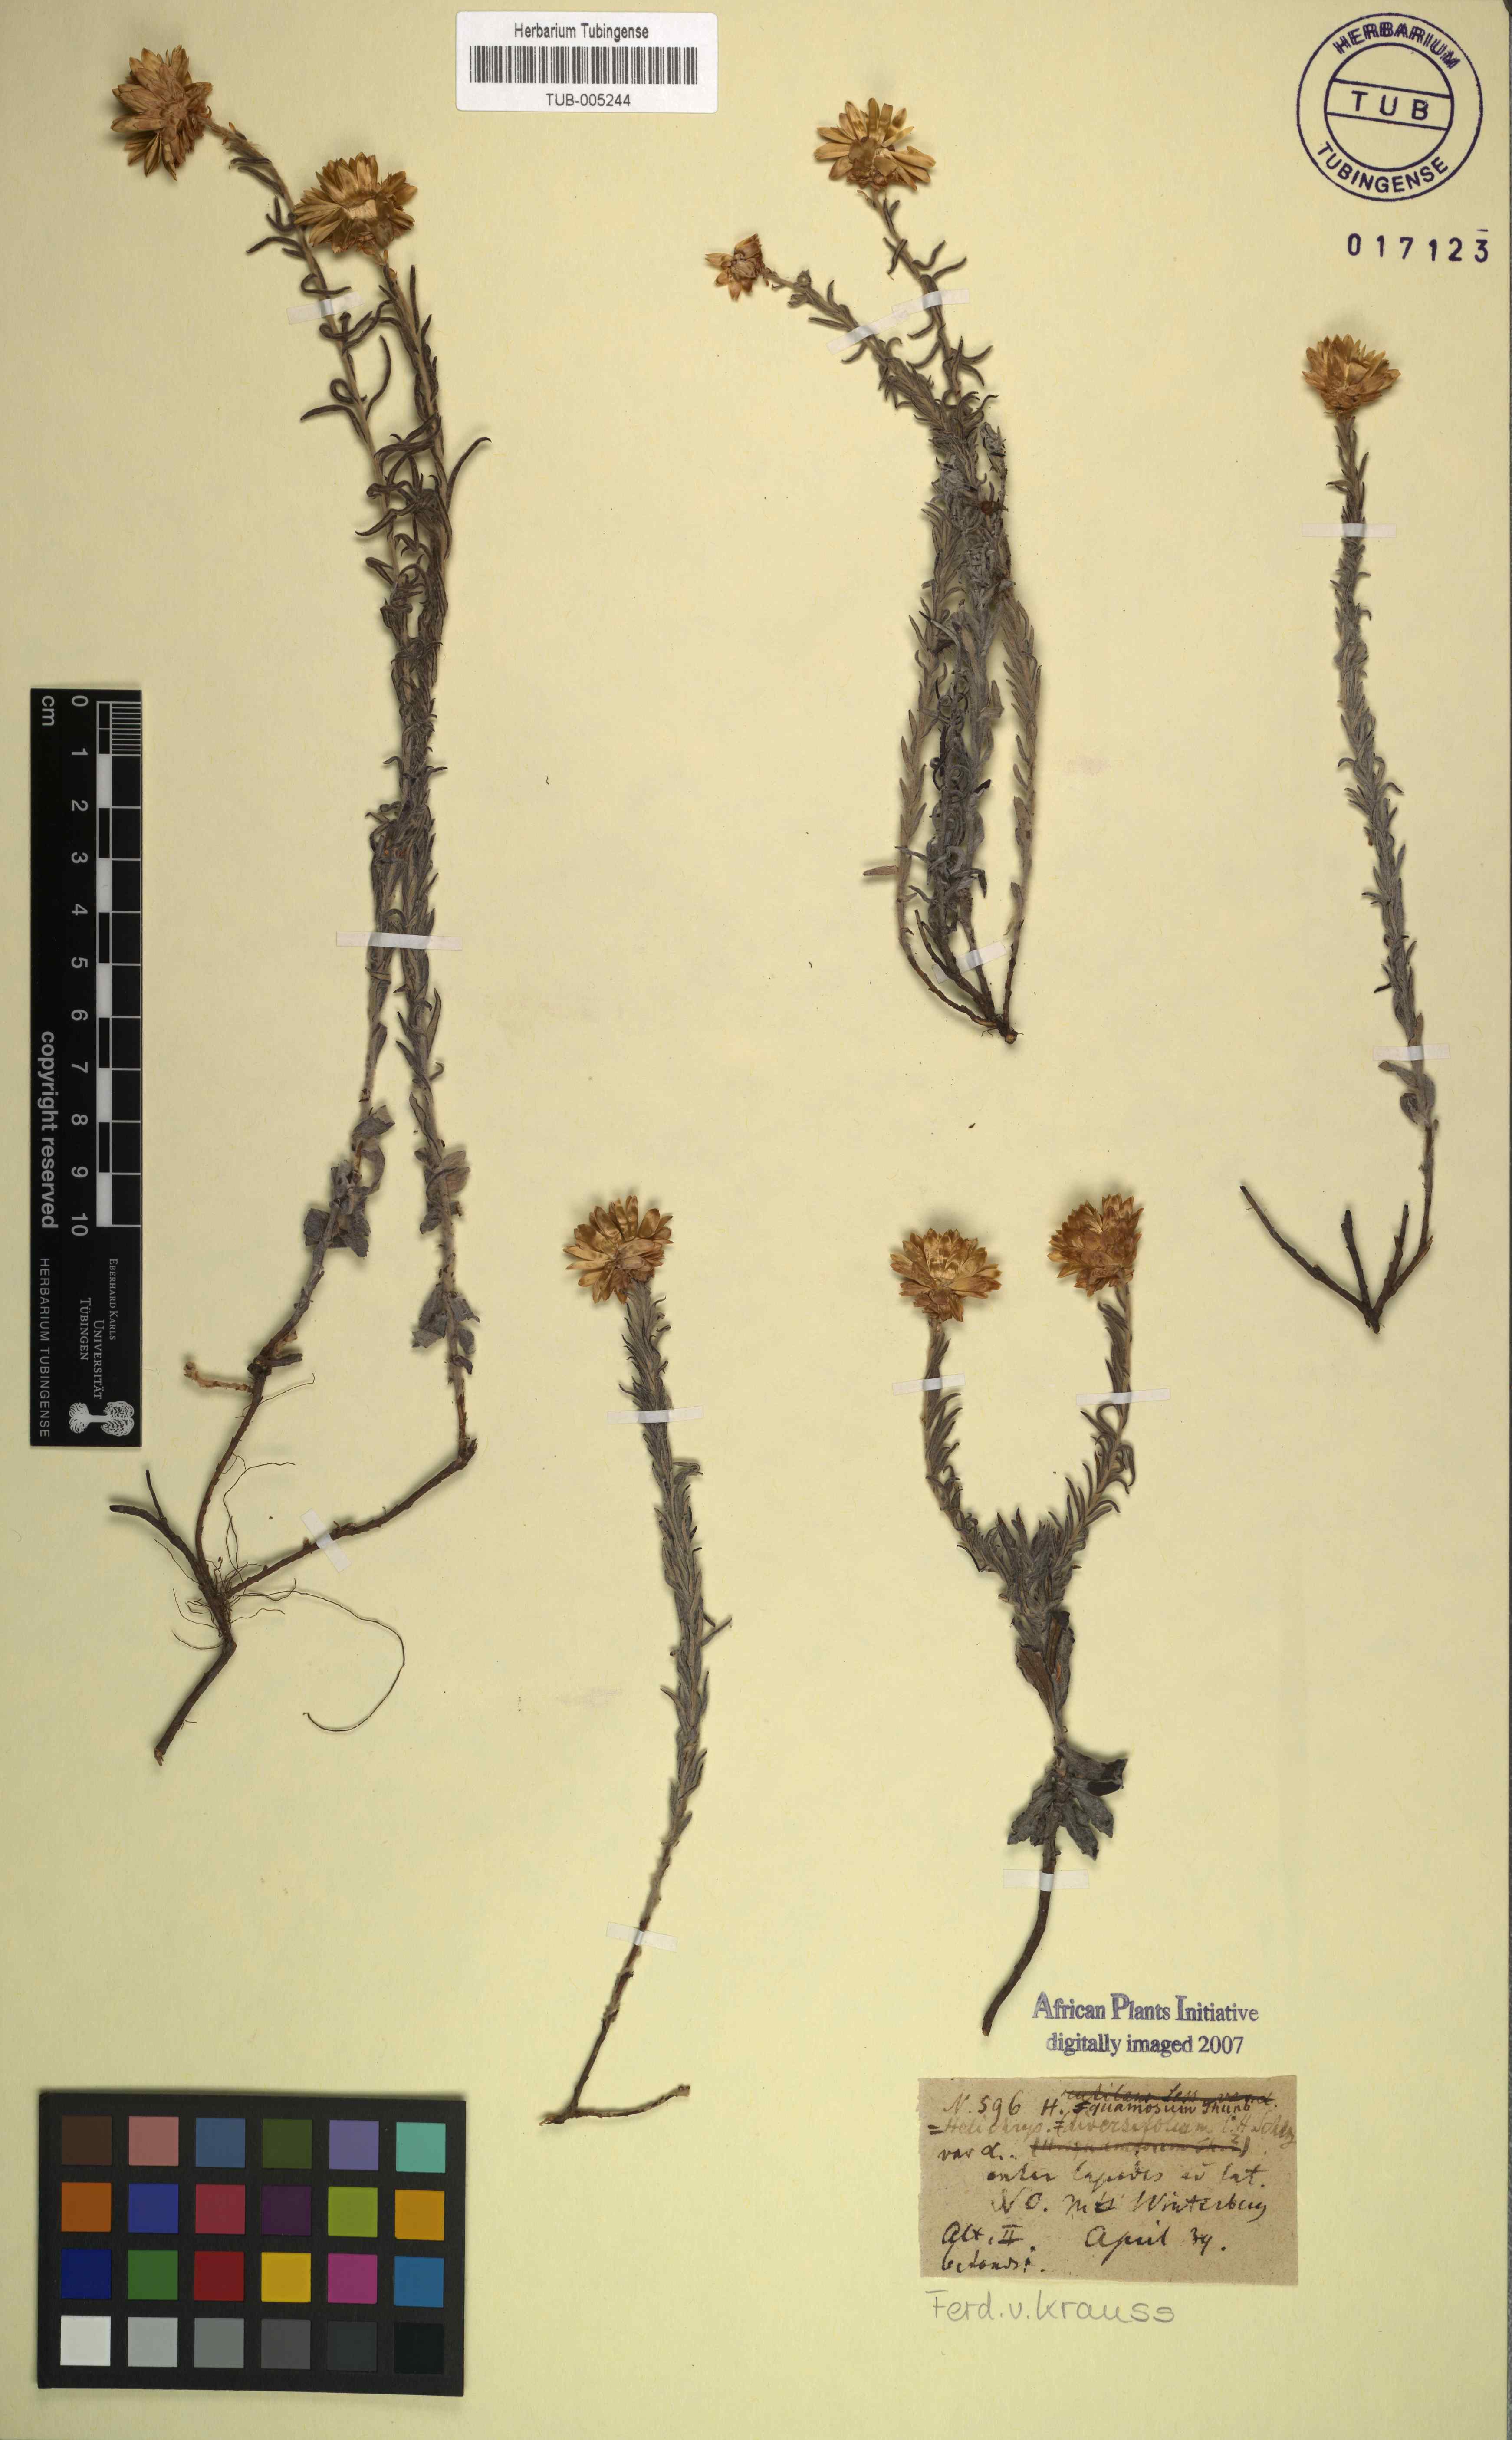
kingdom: Plantae
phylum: Tracheophyta
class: Magnoliopsida
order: Asterales
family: Asteraceae
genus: Edmondia
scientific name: Edmondia pinifolia
